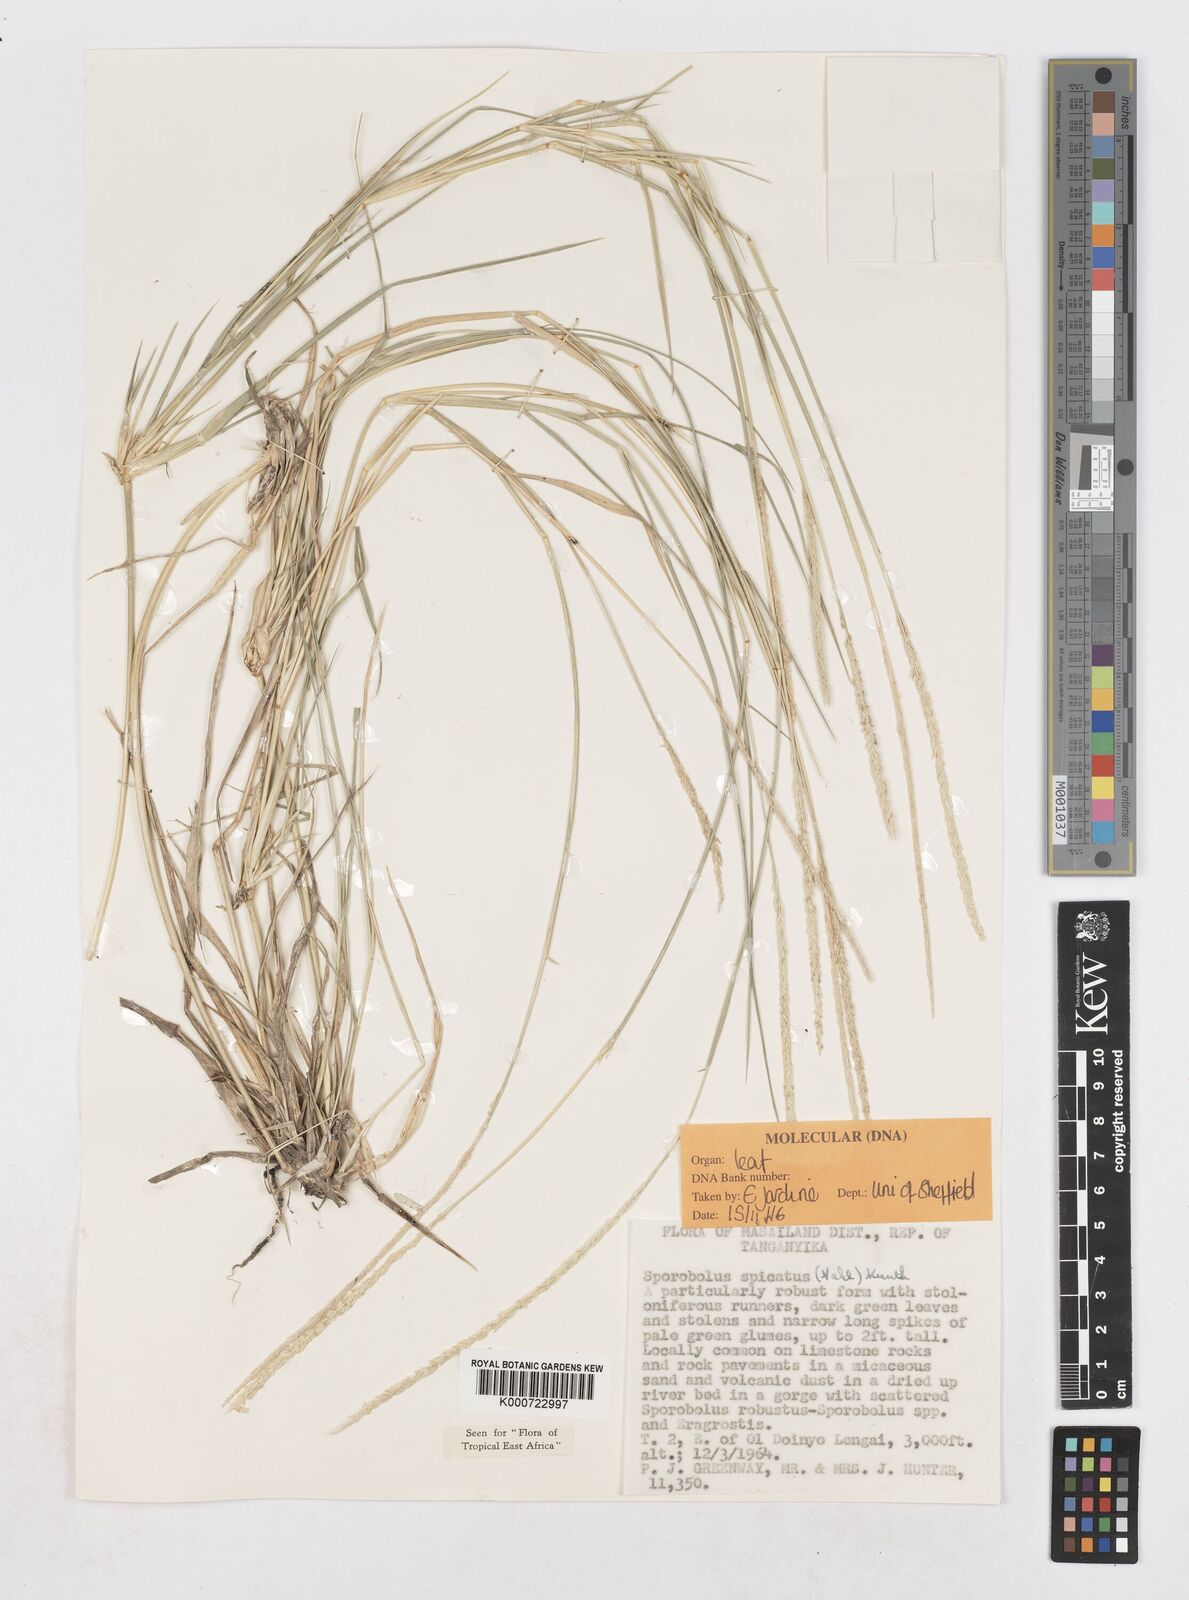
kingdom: Plantae
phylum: Tracheophyta
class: Liliopsida
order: Poales
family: Poaceae
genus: Sporobolus
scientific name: Sporobolus spicatus
